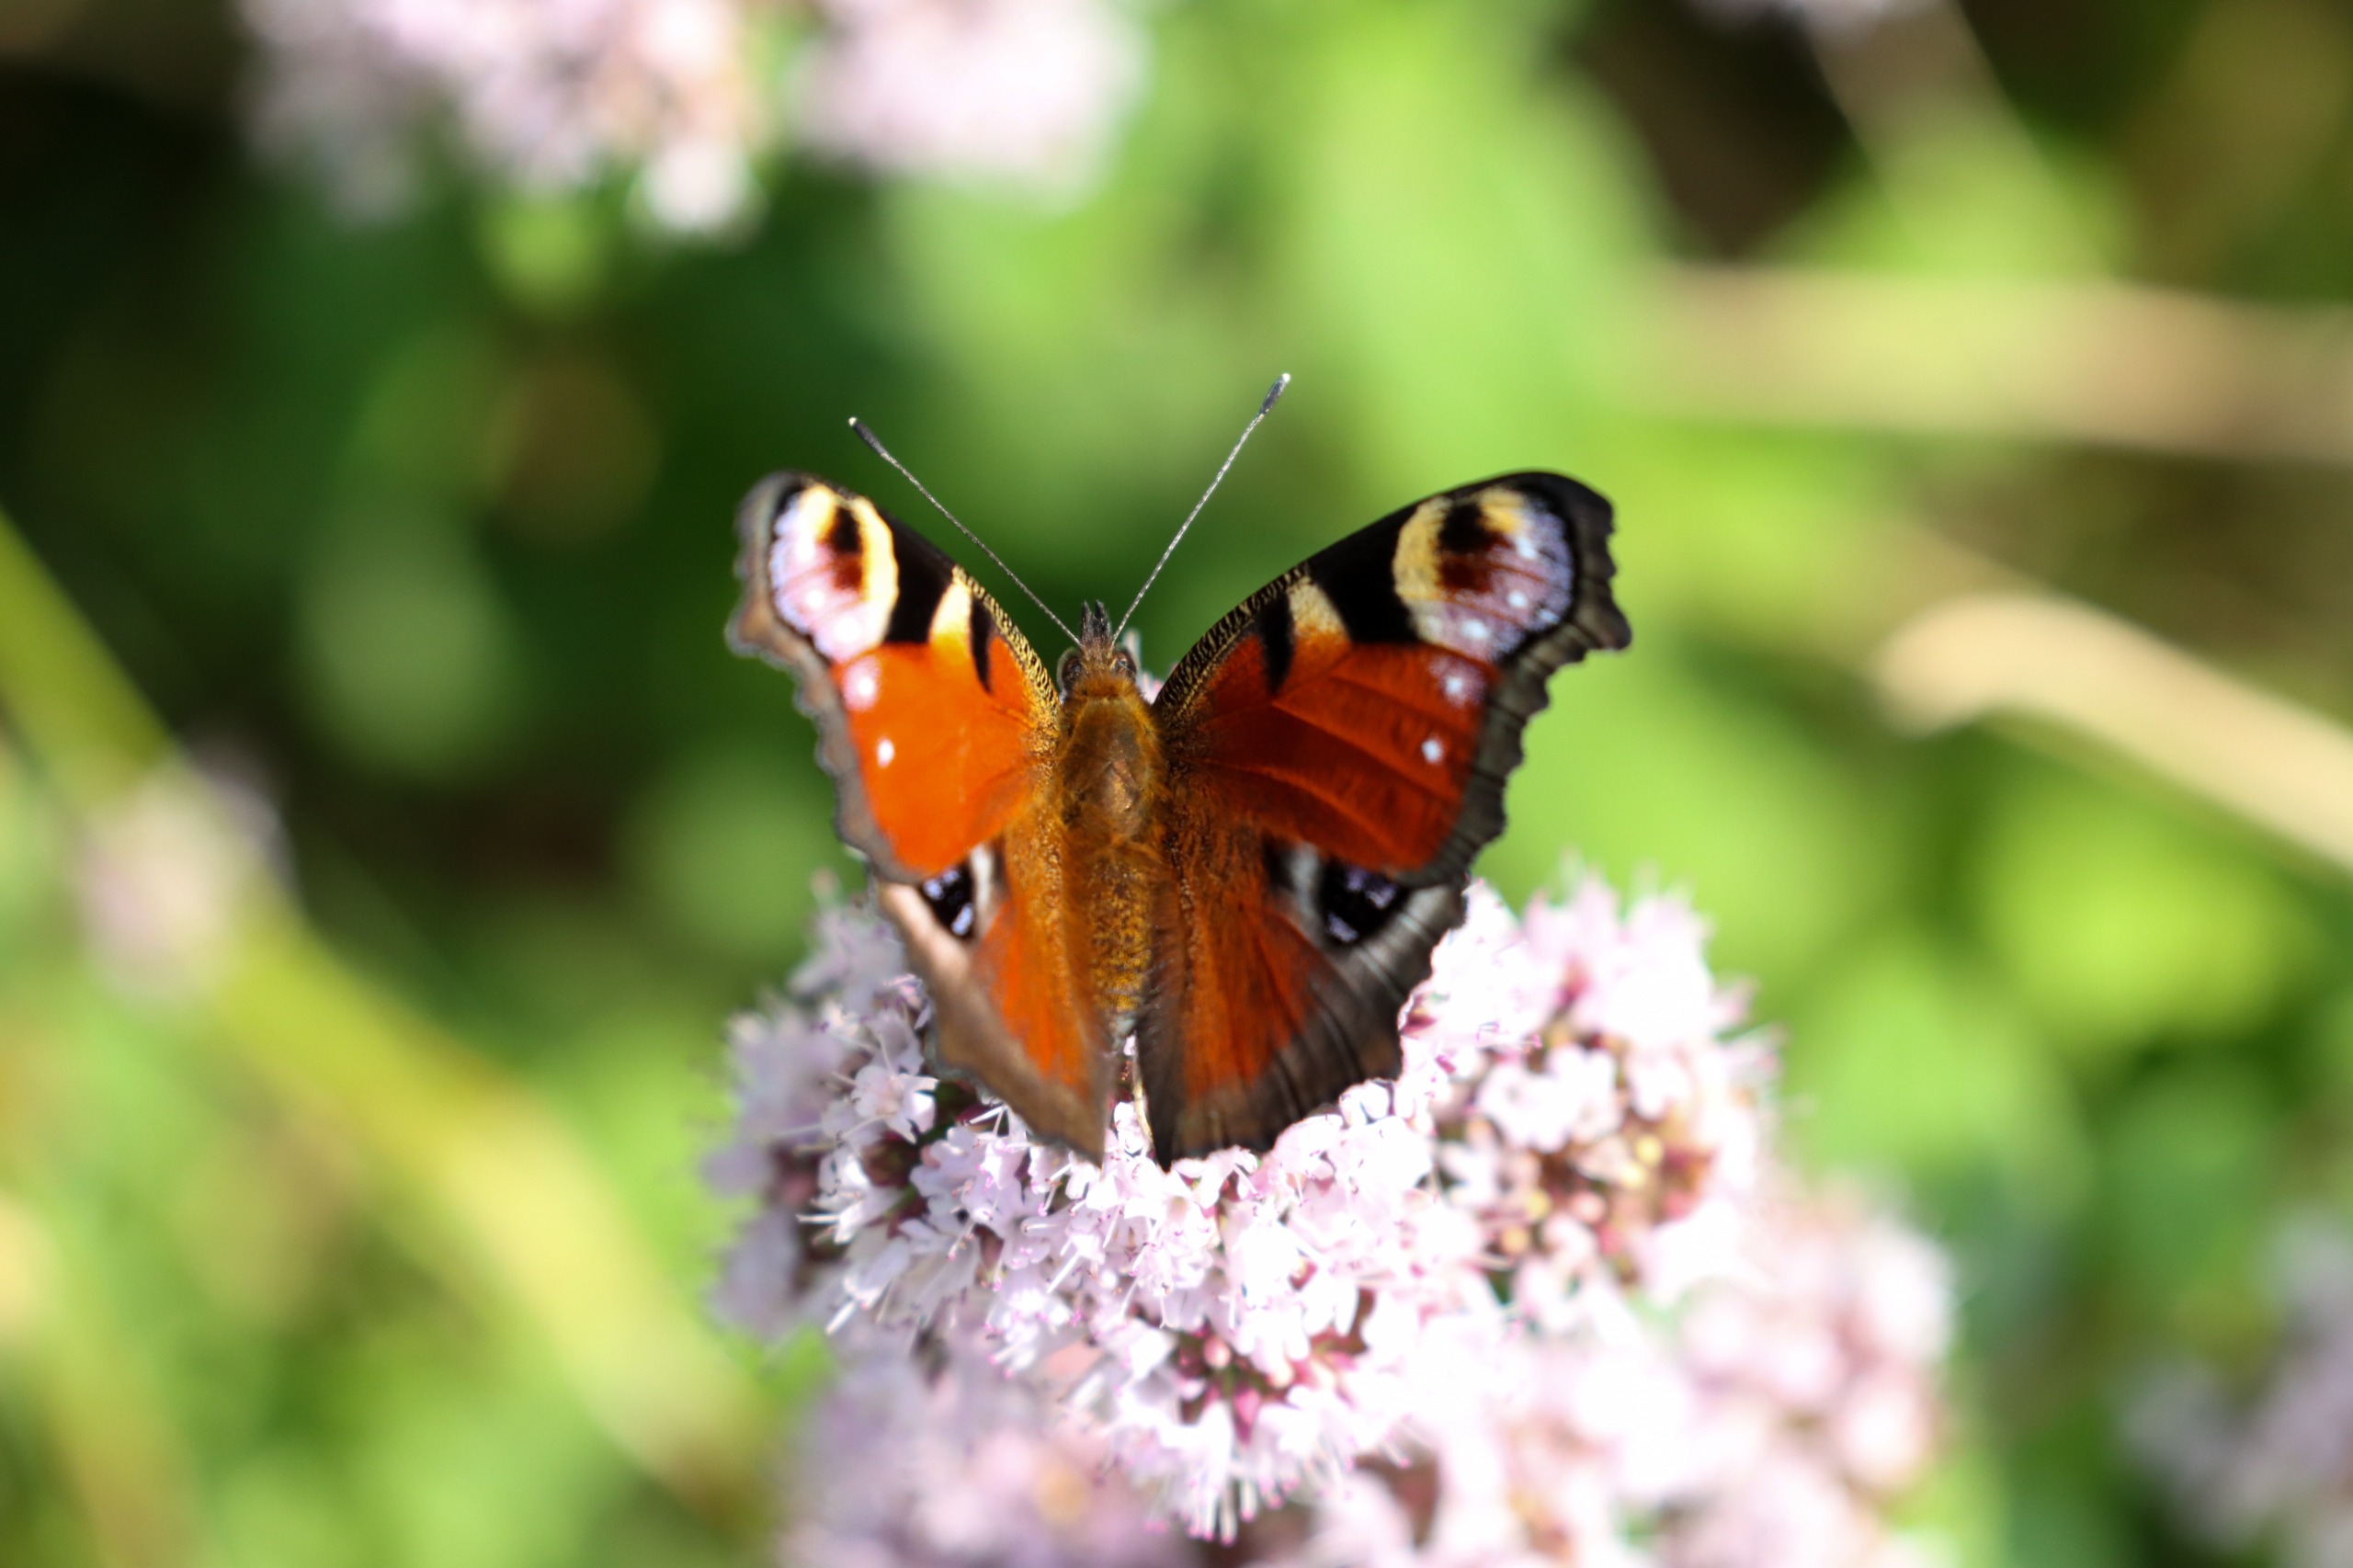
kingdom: Animalia
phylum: Arthropoda
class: Insecta
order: Lepidoptera
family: Nymphalidae
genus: Aglais
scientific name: Aglais io
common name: Dagpåfugleøje
